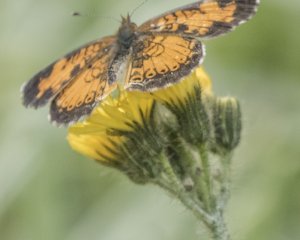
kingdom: Animalia
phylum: Arthropoda
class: Insecta
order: Lepidoptera
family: Nymphalidae
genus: Phyciodes
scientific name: Phyciodes tharos
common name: Northern Crescent
